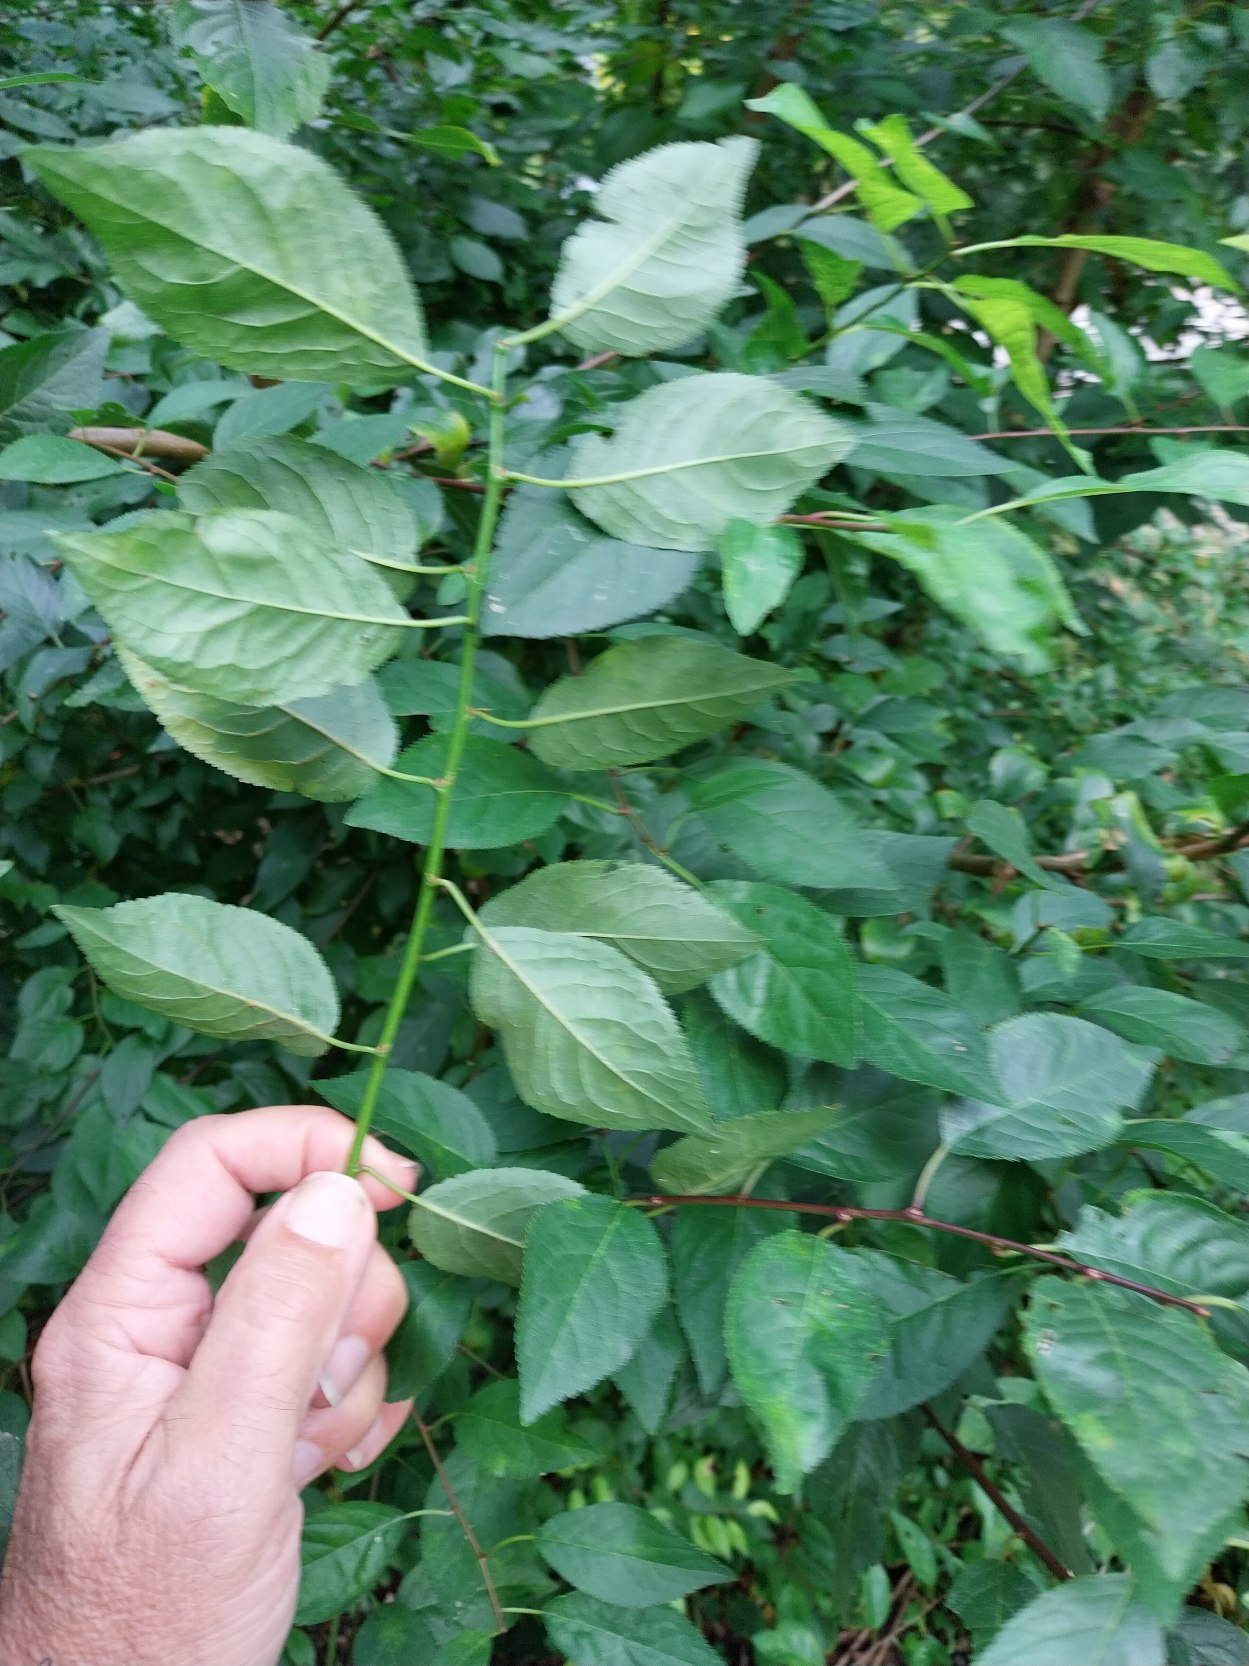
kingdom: Plantae
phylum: Tracheophyta
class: Magnoliopsida
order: Rosales
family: Rosaceae
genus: Prunus
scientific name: Prunus cerasifera
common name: Mirabel
